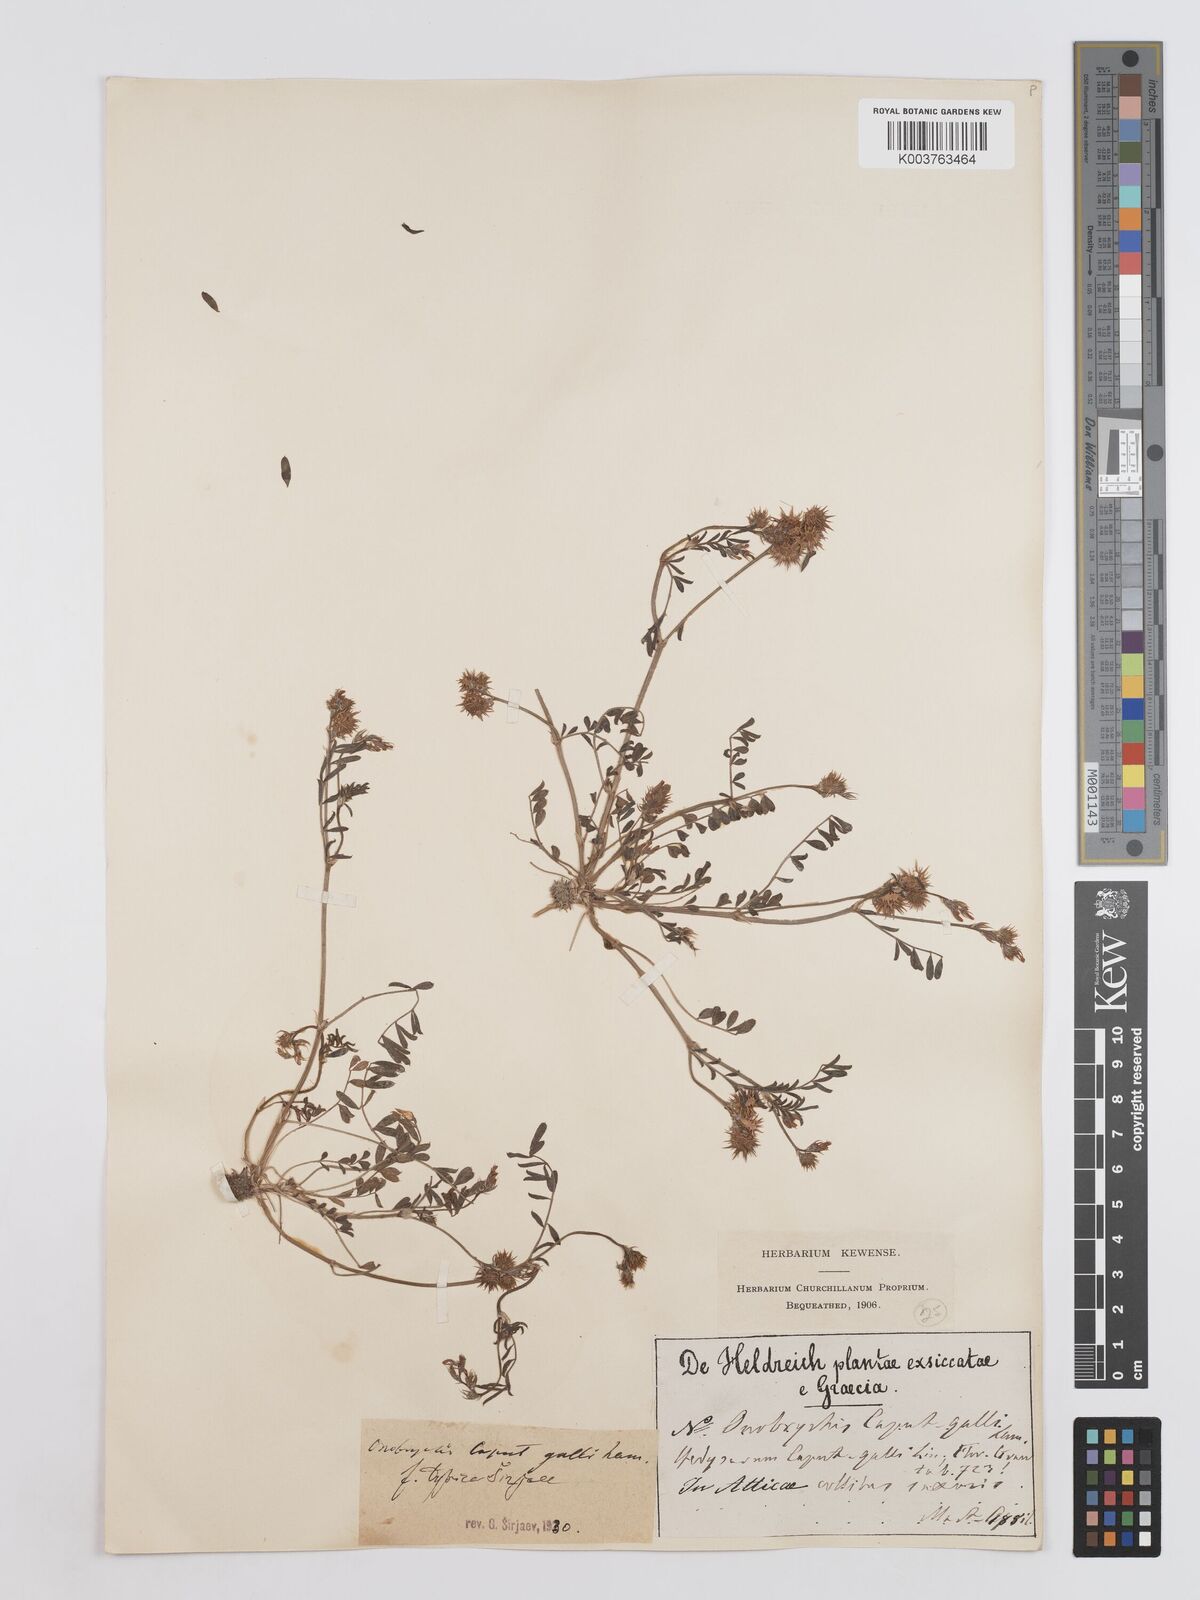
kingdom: Plantae
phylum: Tracheophyta
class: Magnoliopsida
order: Fabales
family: Fabaceae
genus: Onobrychis
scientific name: Onobrychis caput-galli
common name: Cockscomb sainfoin
